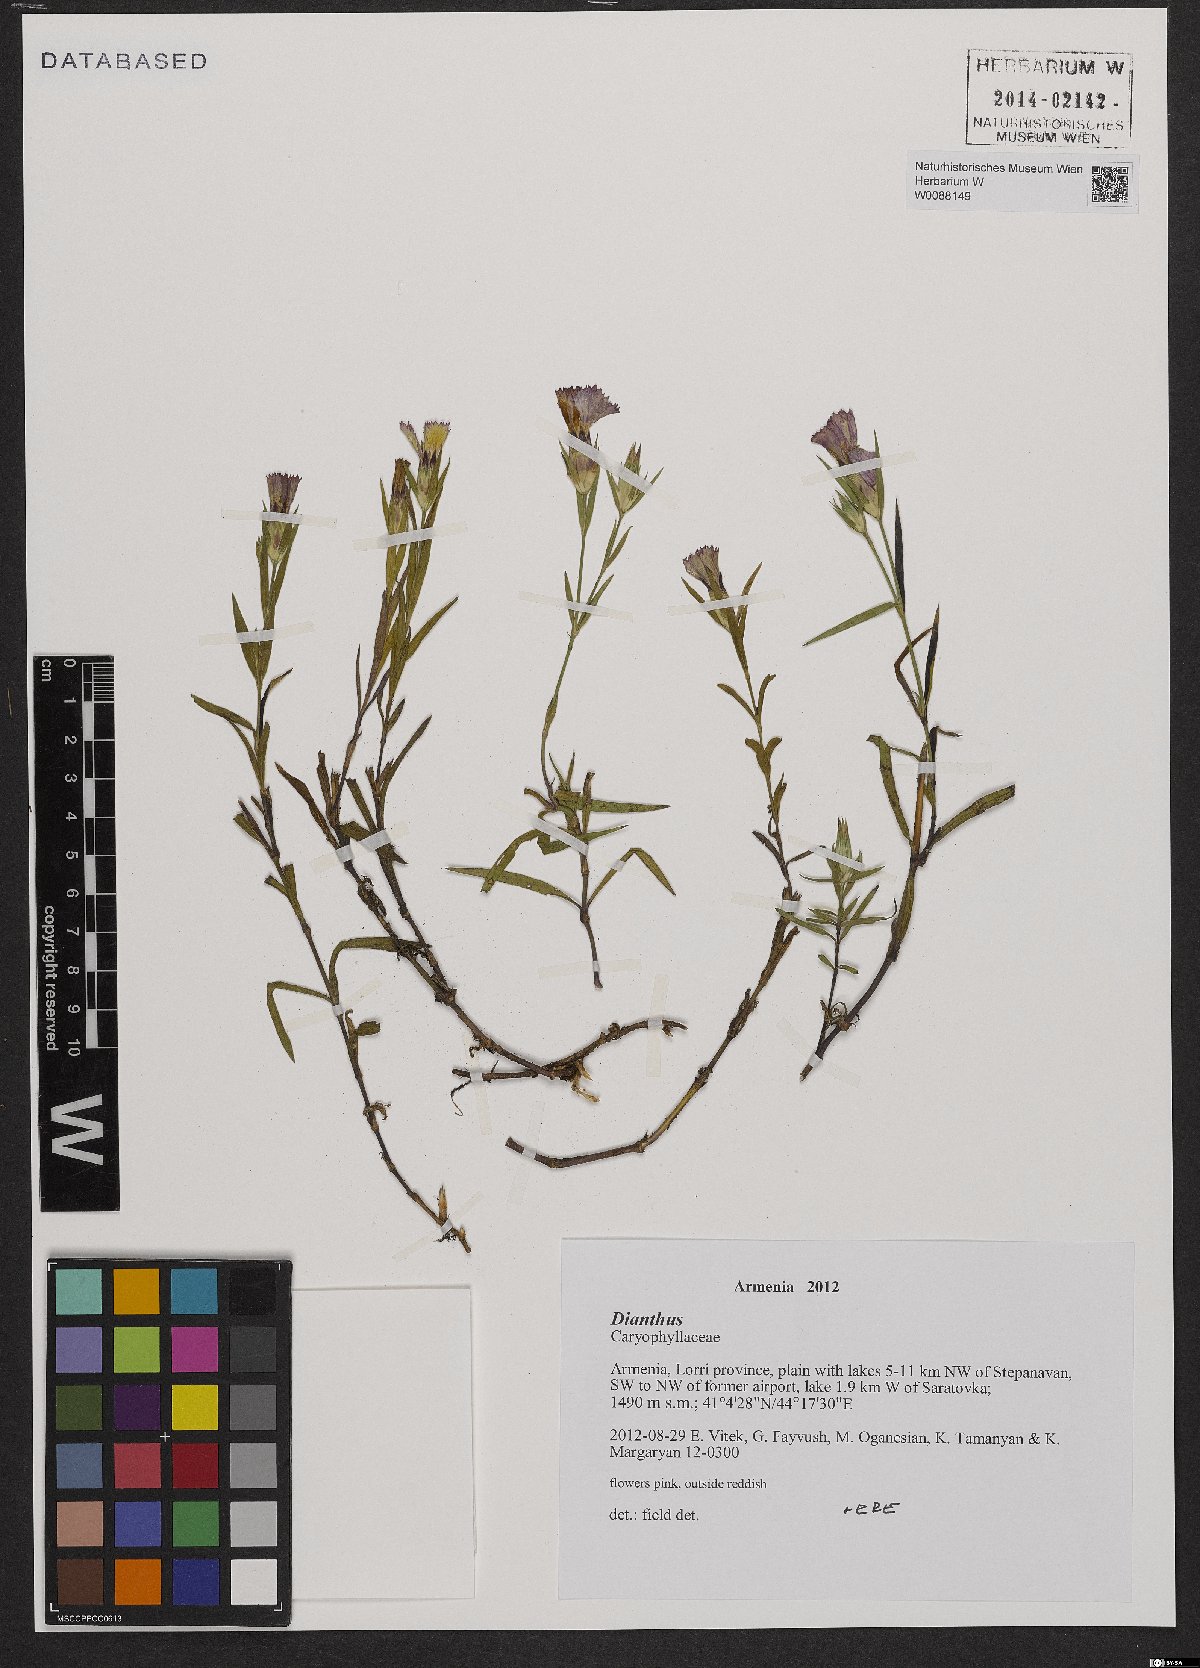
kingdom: Plantae
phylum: Tracheophyta
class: Magnoliopsida
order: Caryophyllales
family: Caryophyllaceae
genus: Dianthus
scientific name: Dianthus
